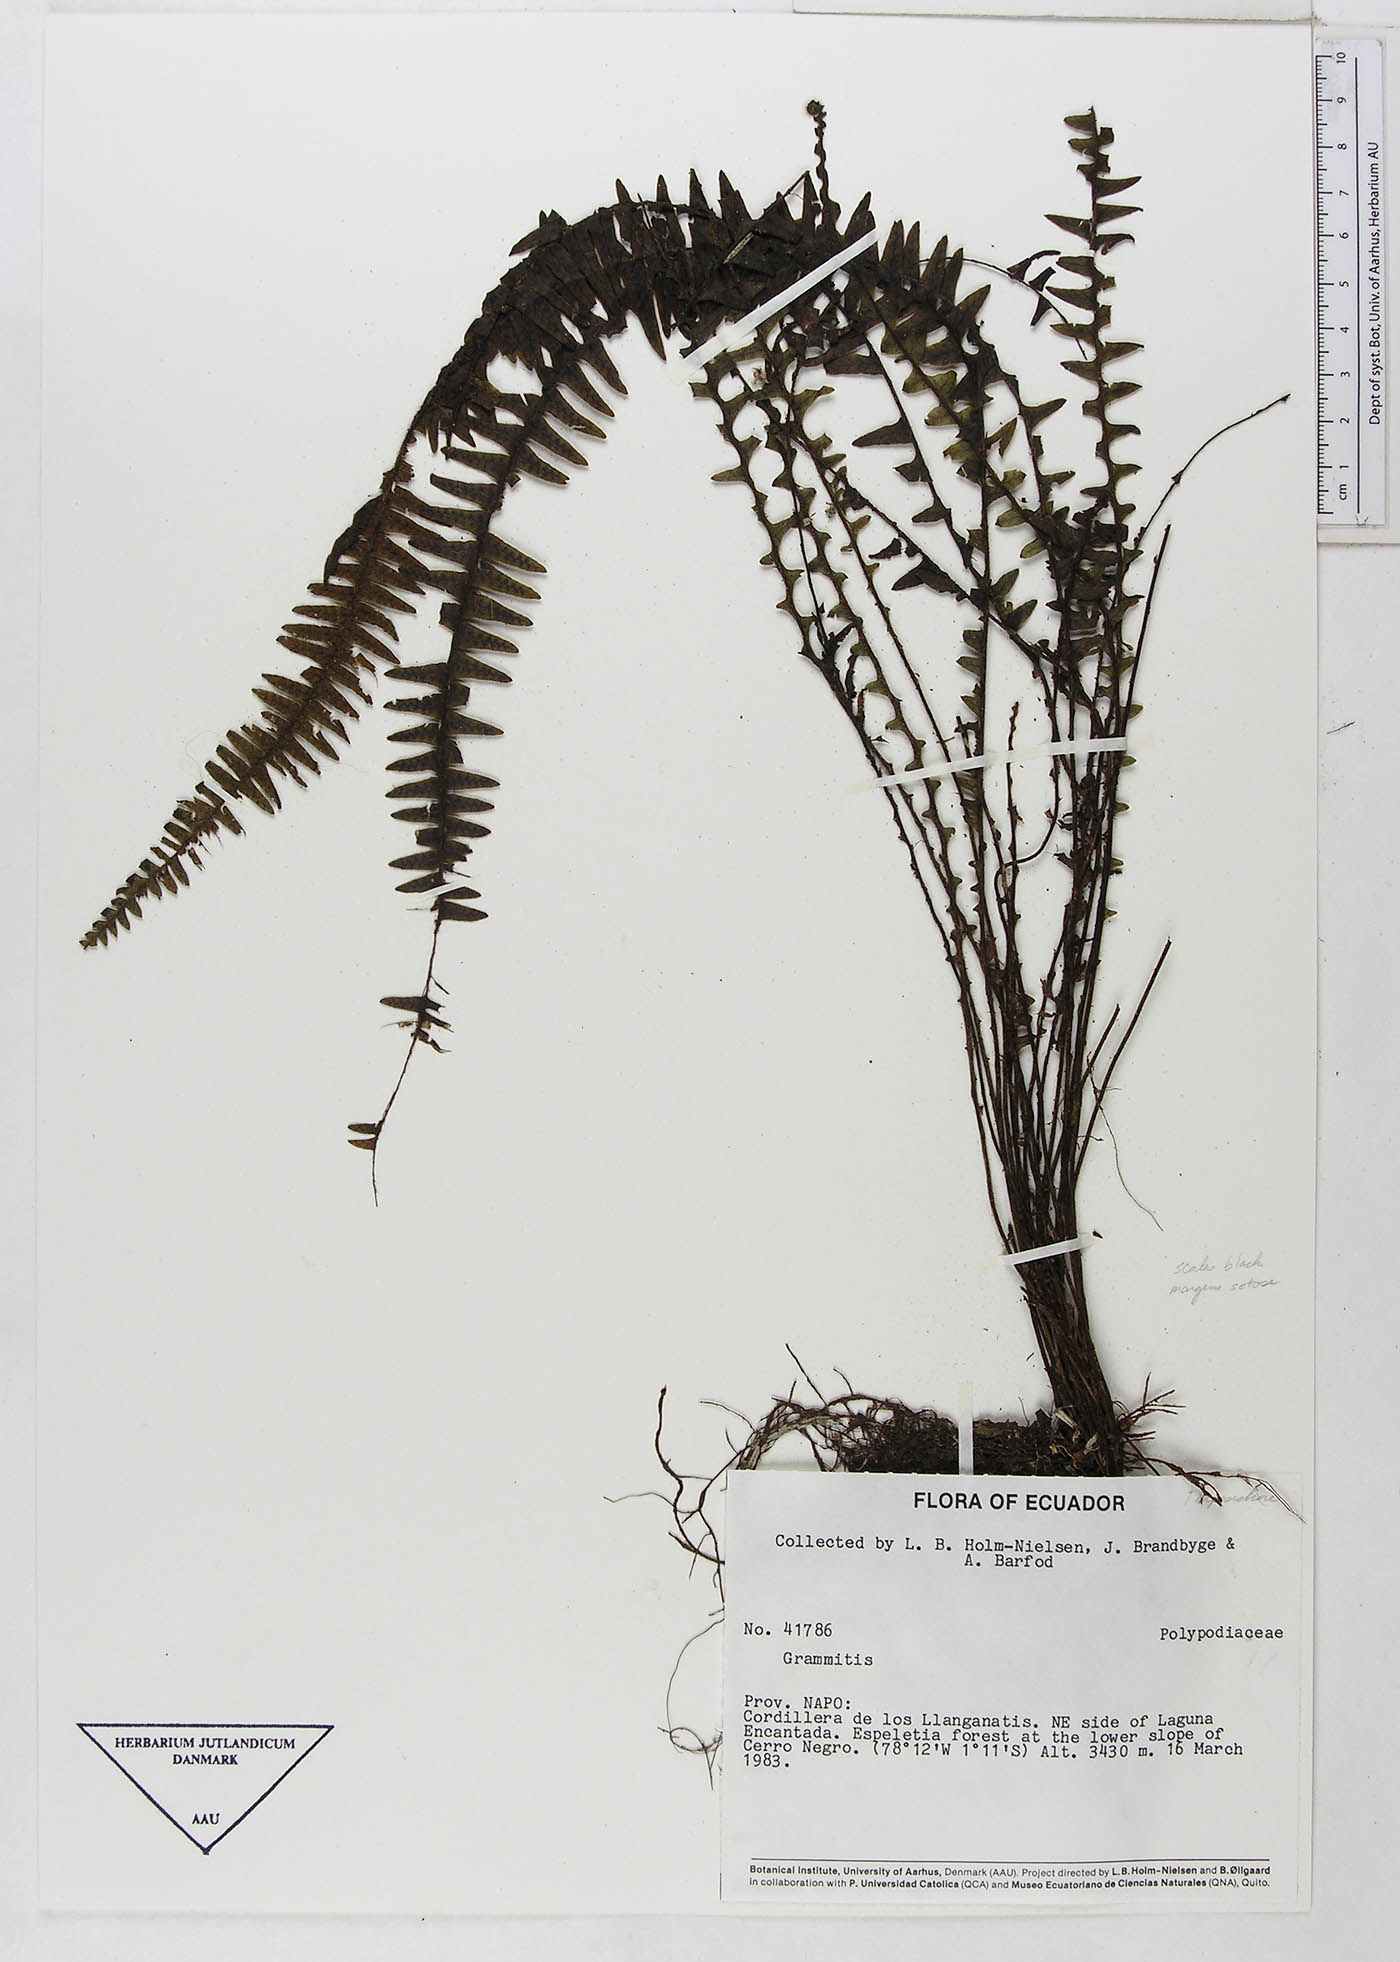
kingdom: Plantae
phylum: Tracheophyta
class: Polypodiopsida
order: Polypodiales
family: Polypodiaceae
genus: Ascogrammitis
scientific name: Ascogrammitis pichinchae
